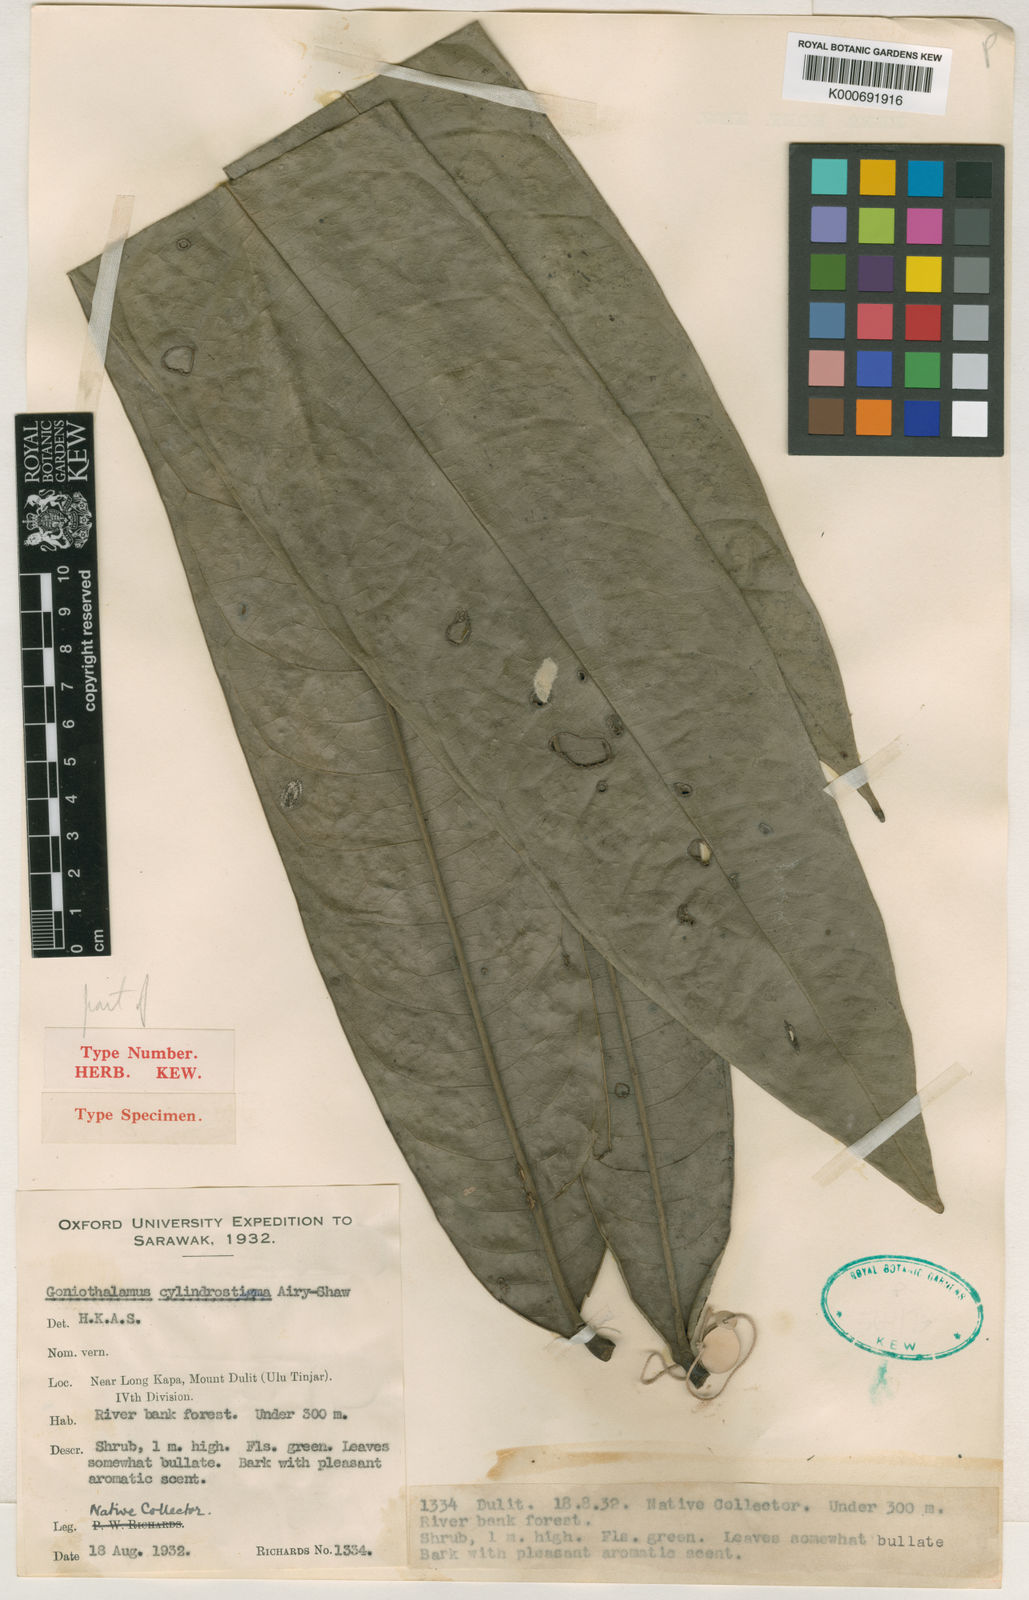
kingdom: Plantae
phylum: Tracheophyta
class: Magnoliopsida
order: Magnoliales
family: Annonaceae
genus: Goniothalamus
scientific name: Goniothalamus cylindrostigma
